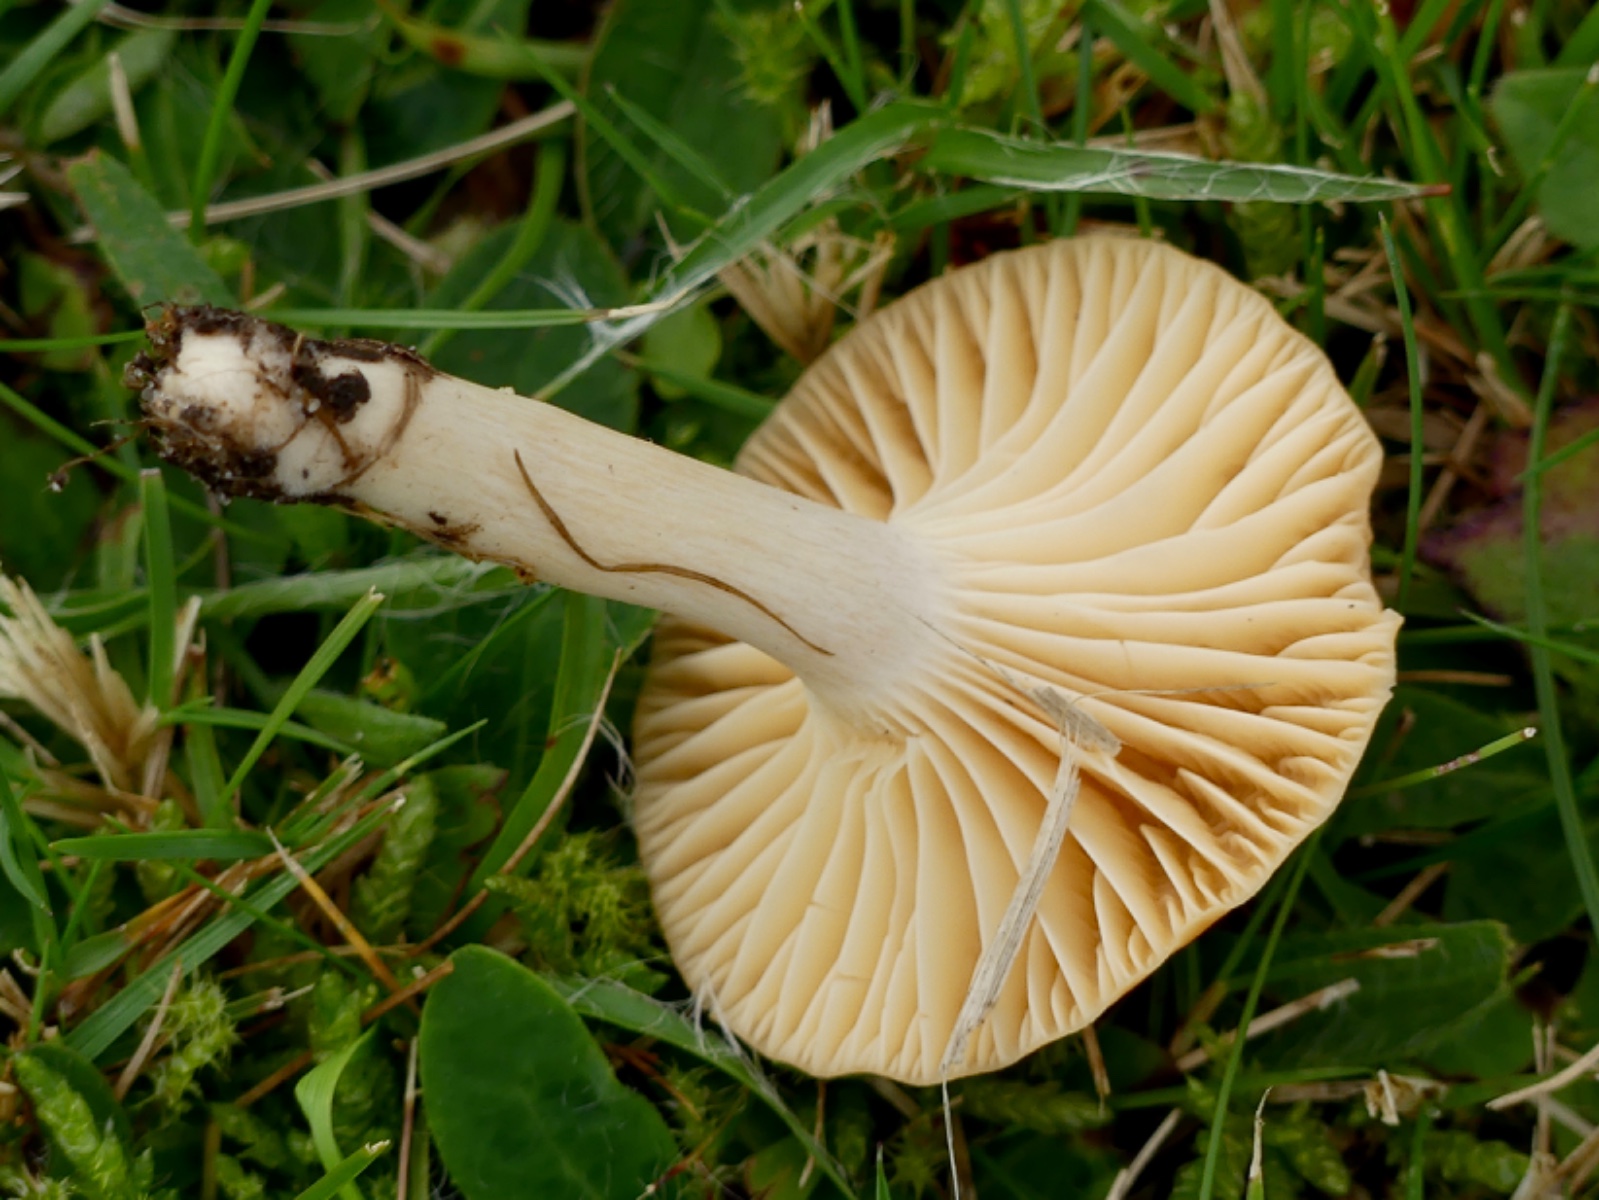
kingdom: Fungi
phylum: Basidiomycota
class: Agaricomycetes
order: Agaricales
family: Hygrophoraceae
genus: Cuphophyllus
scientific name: Cuphophyllus pratensis
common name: eng-vokshat
